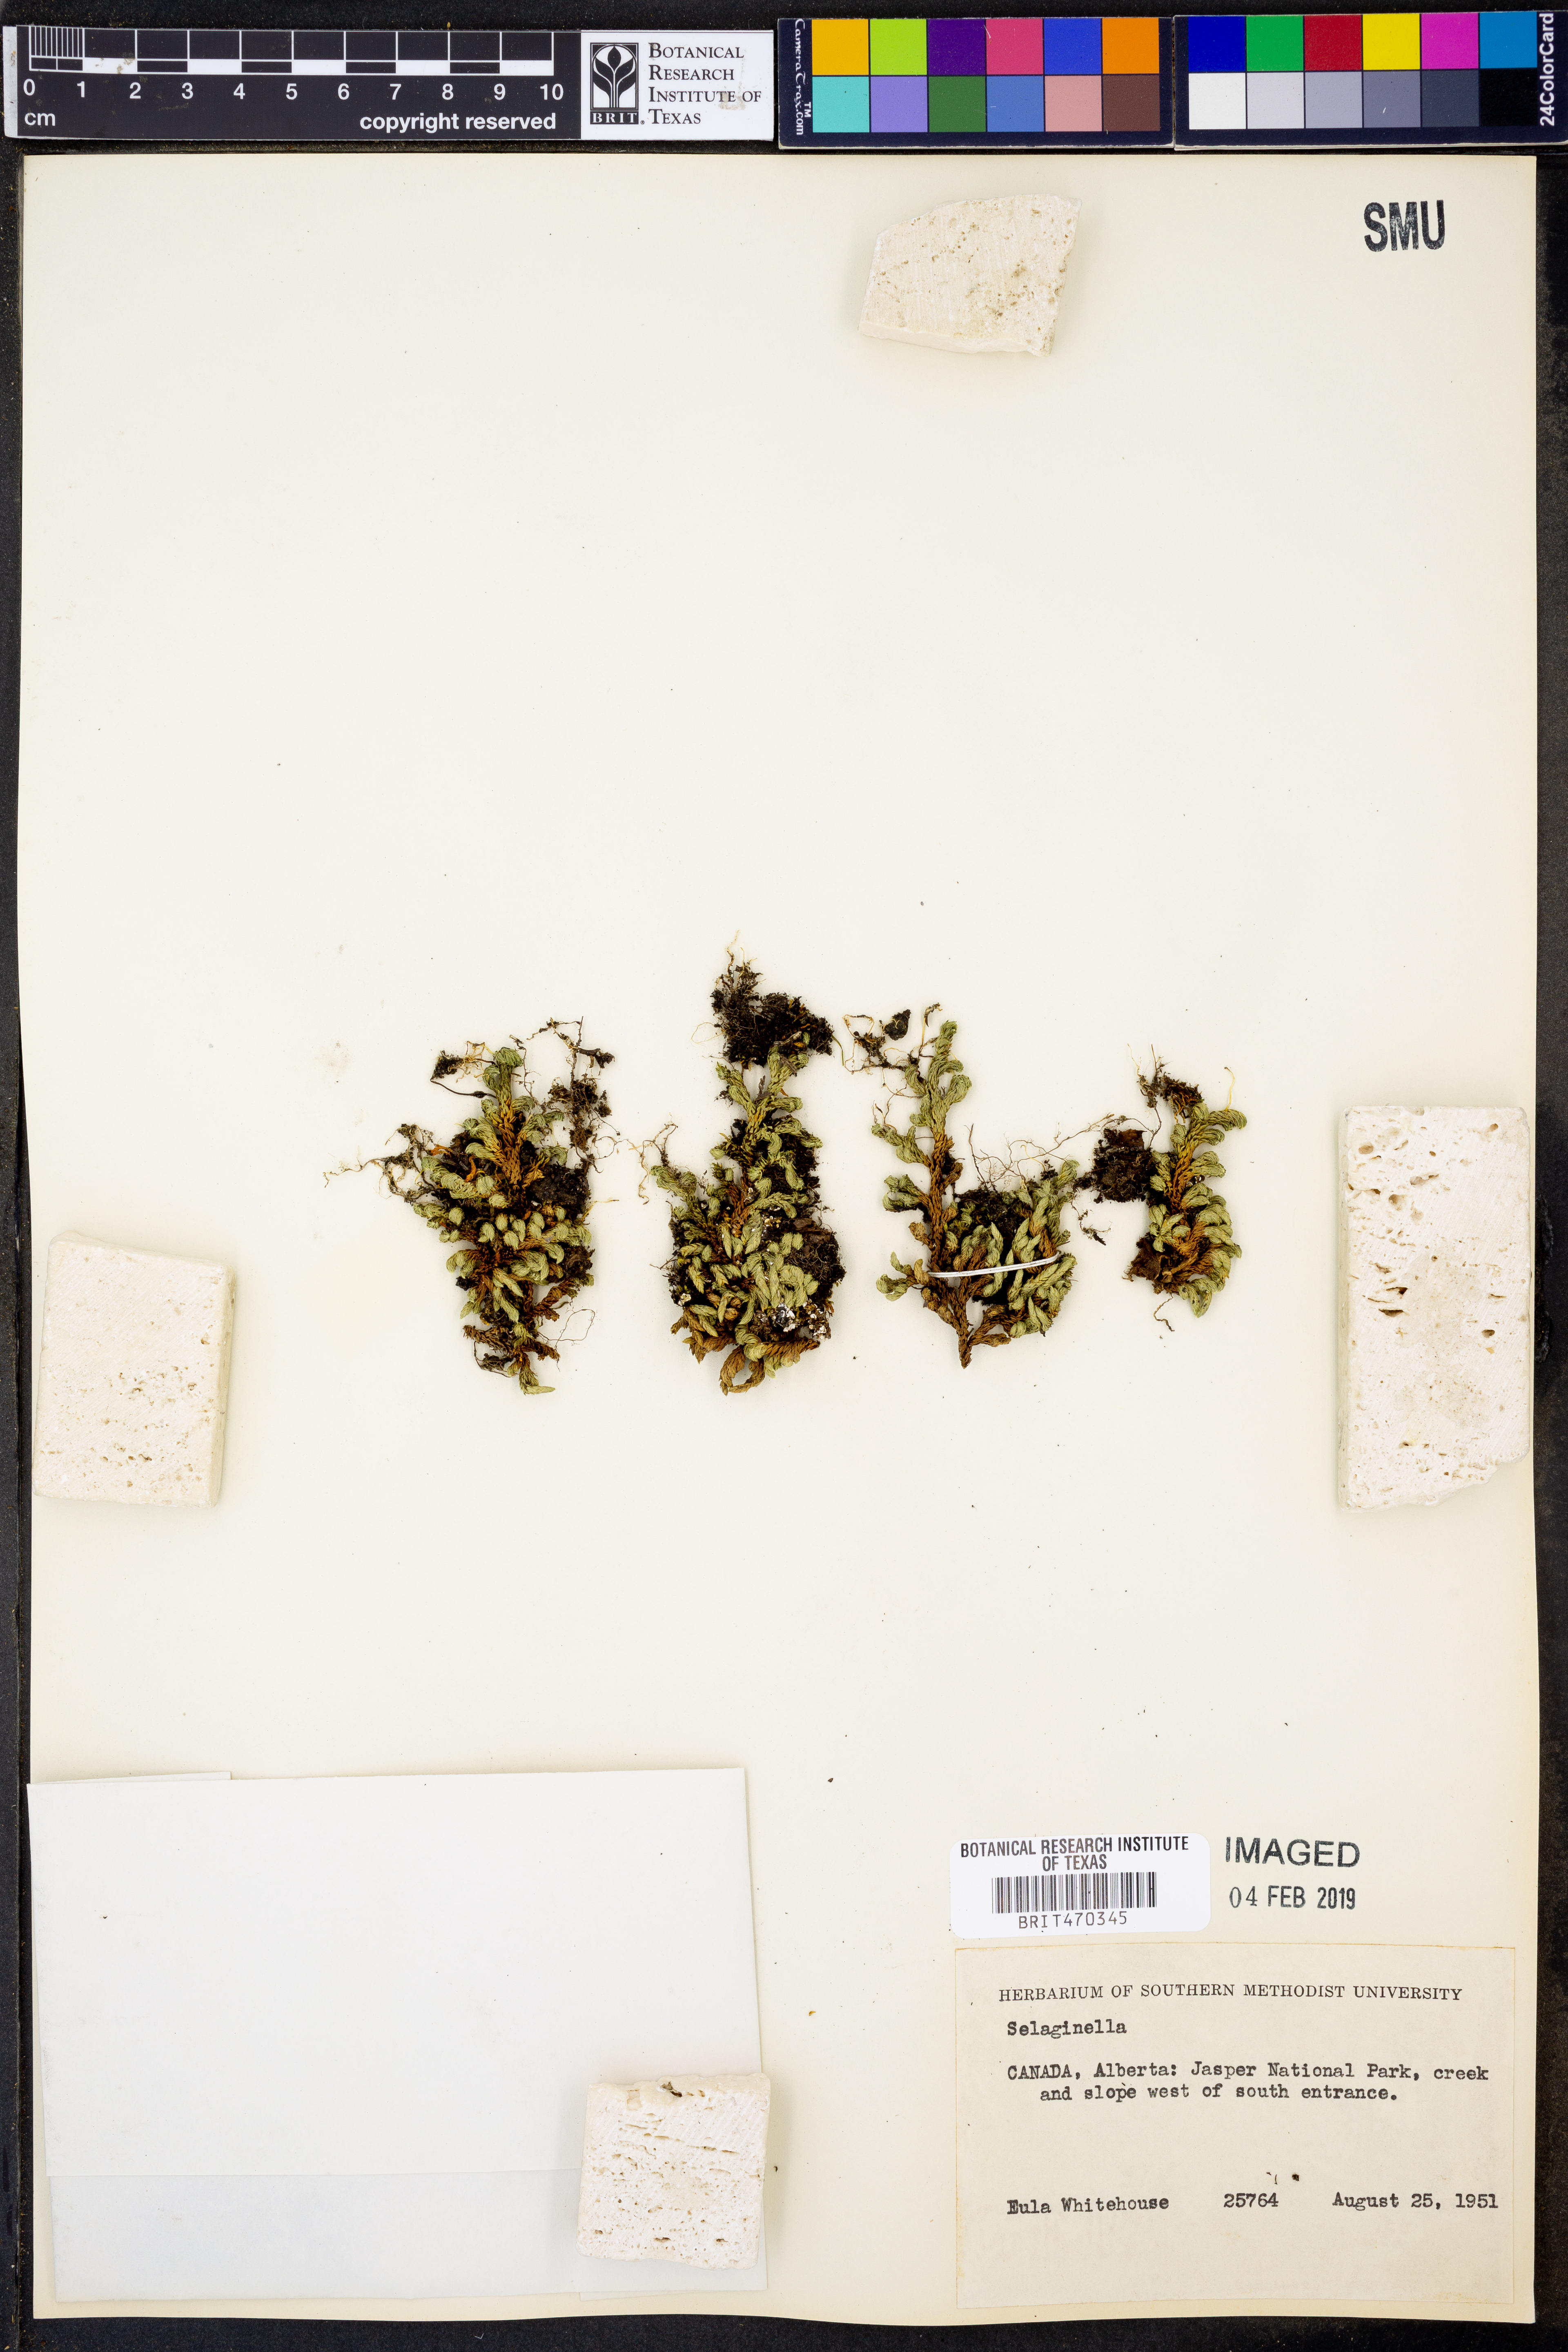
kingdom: Plantae
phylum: Tracheophyta
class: Lycopodiopsida
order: Selaginellales
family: Selaginellaceae
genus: Selaginella
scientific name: Selaginella
